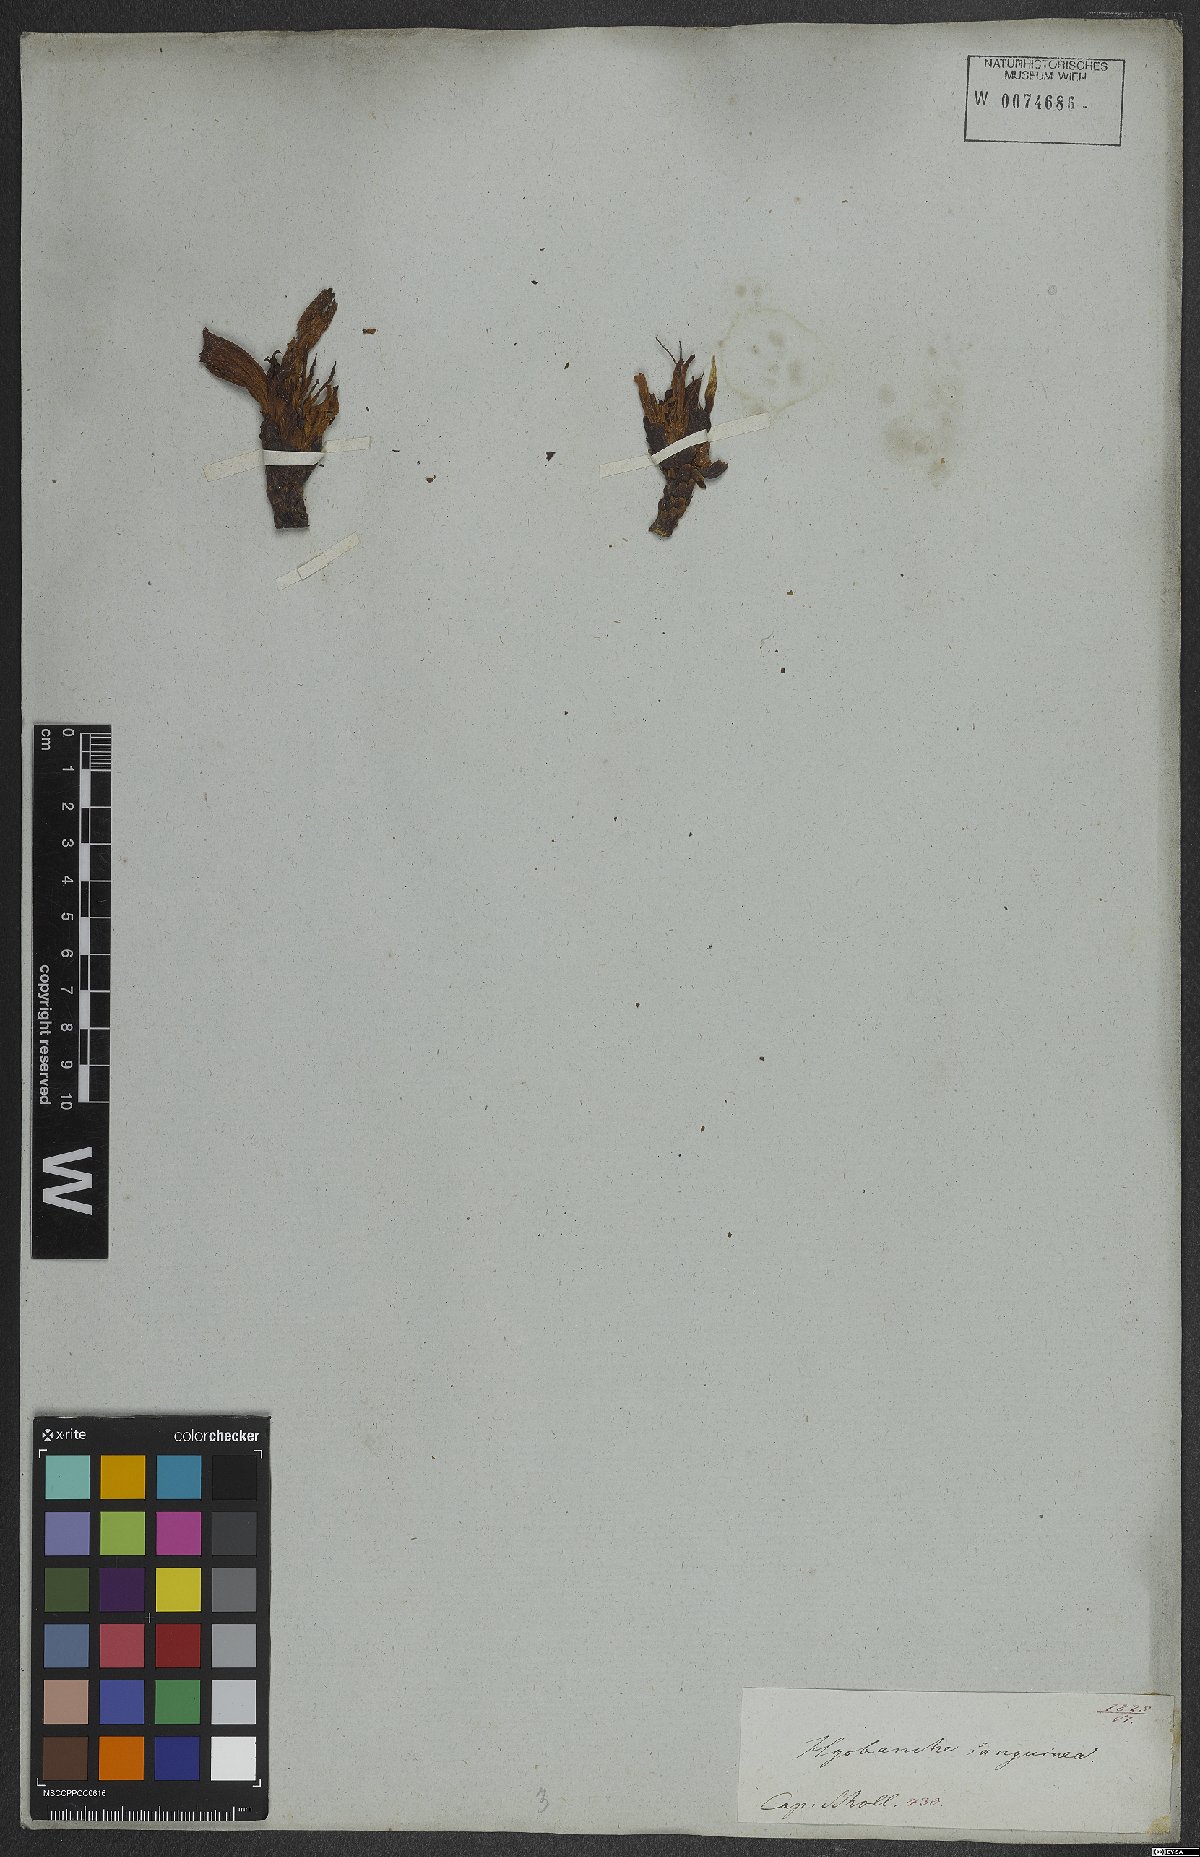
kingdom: Plantae
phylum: Tracheophyta
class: Magnoliopsida
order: Lamiales
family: Orobanchaceae
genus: Hyobanche
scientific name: Hyobanche sanguinea
